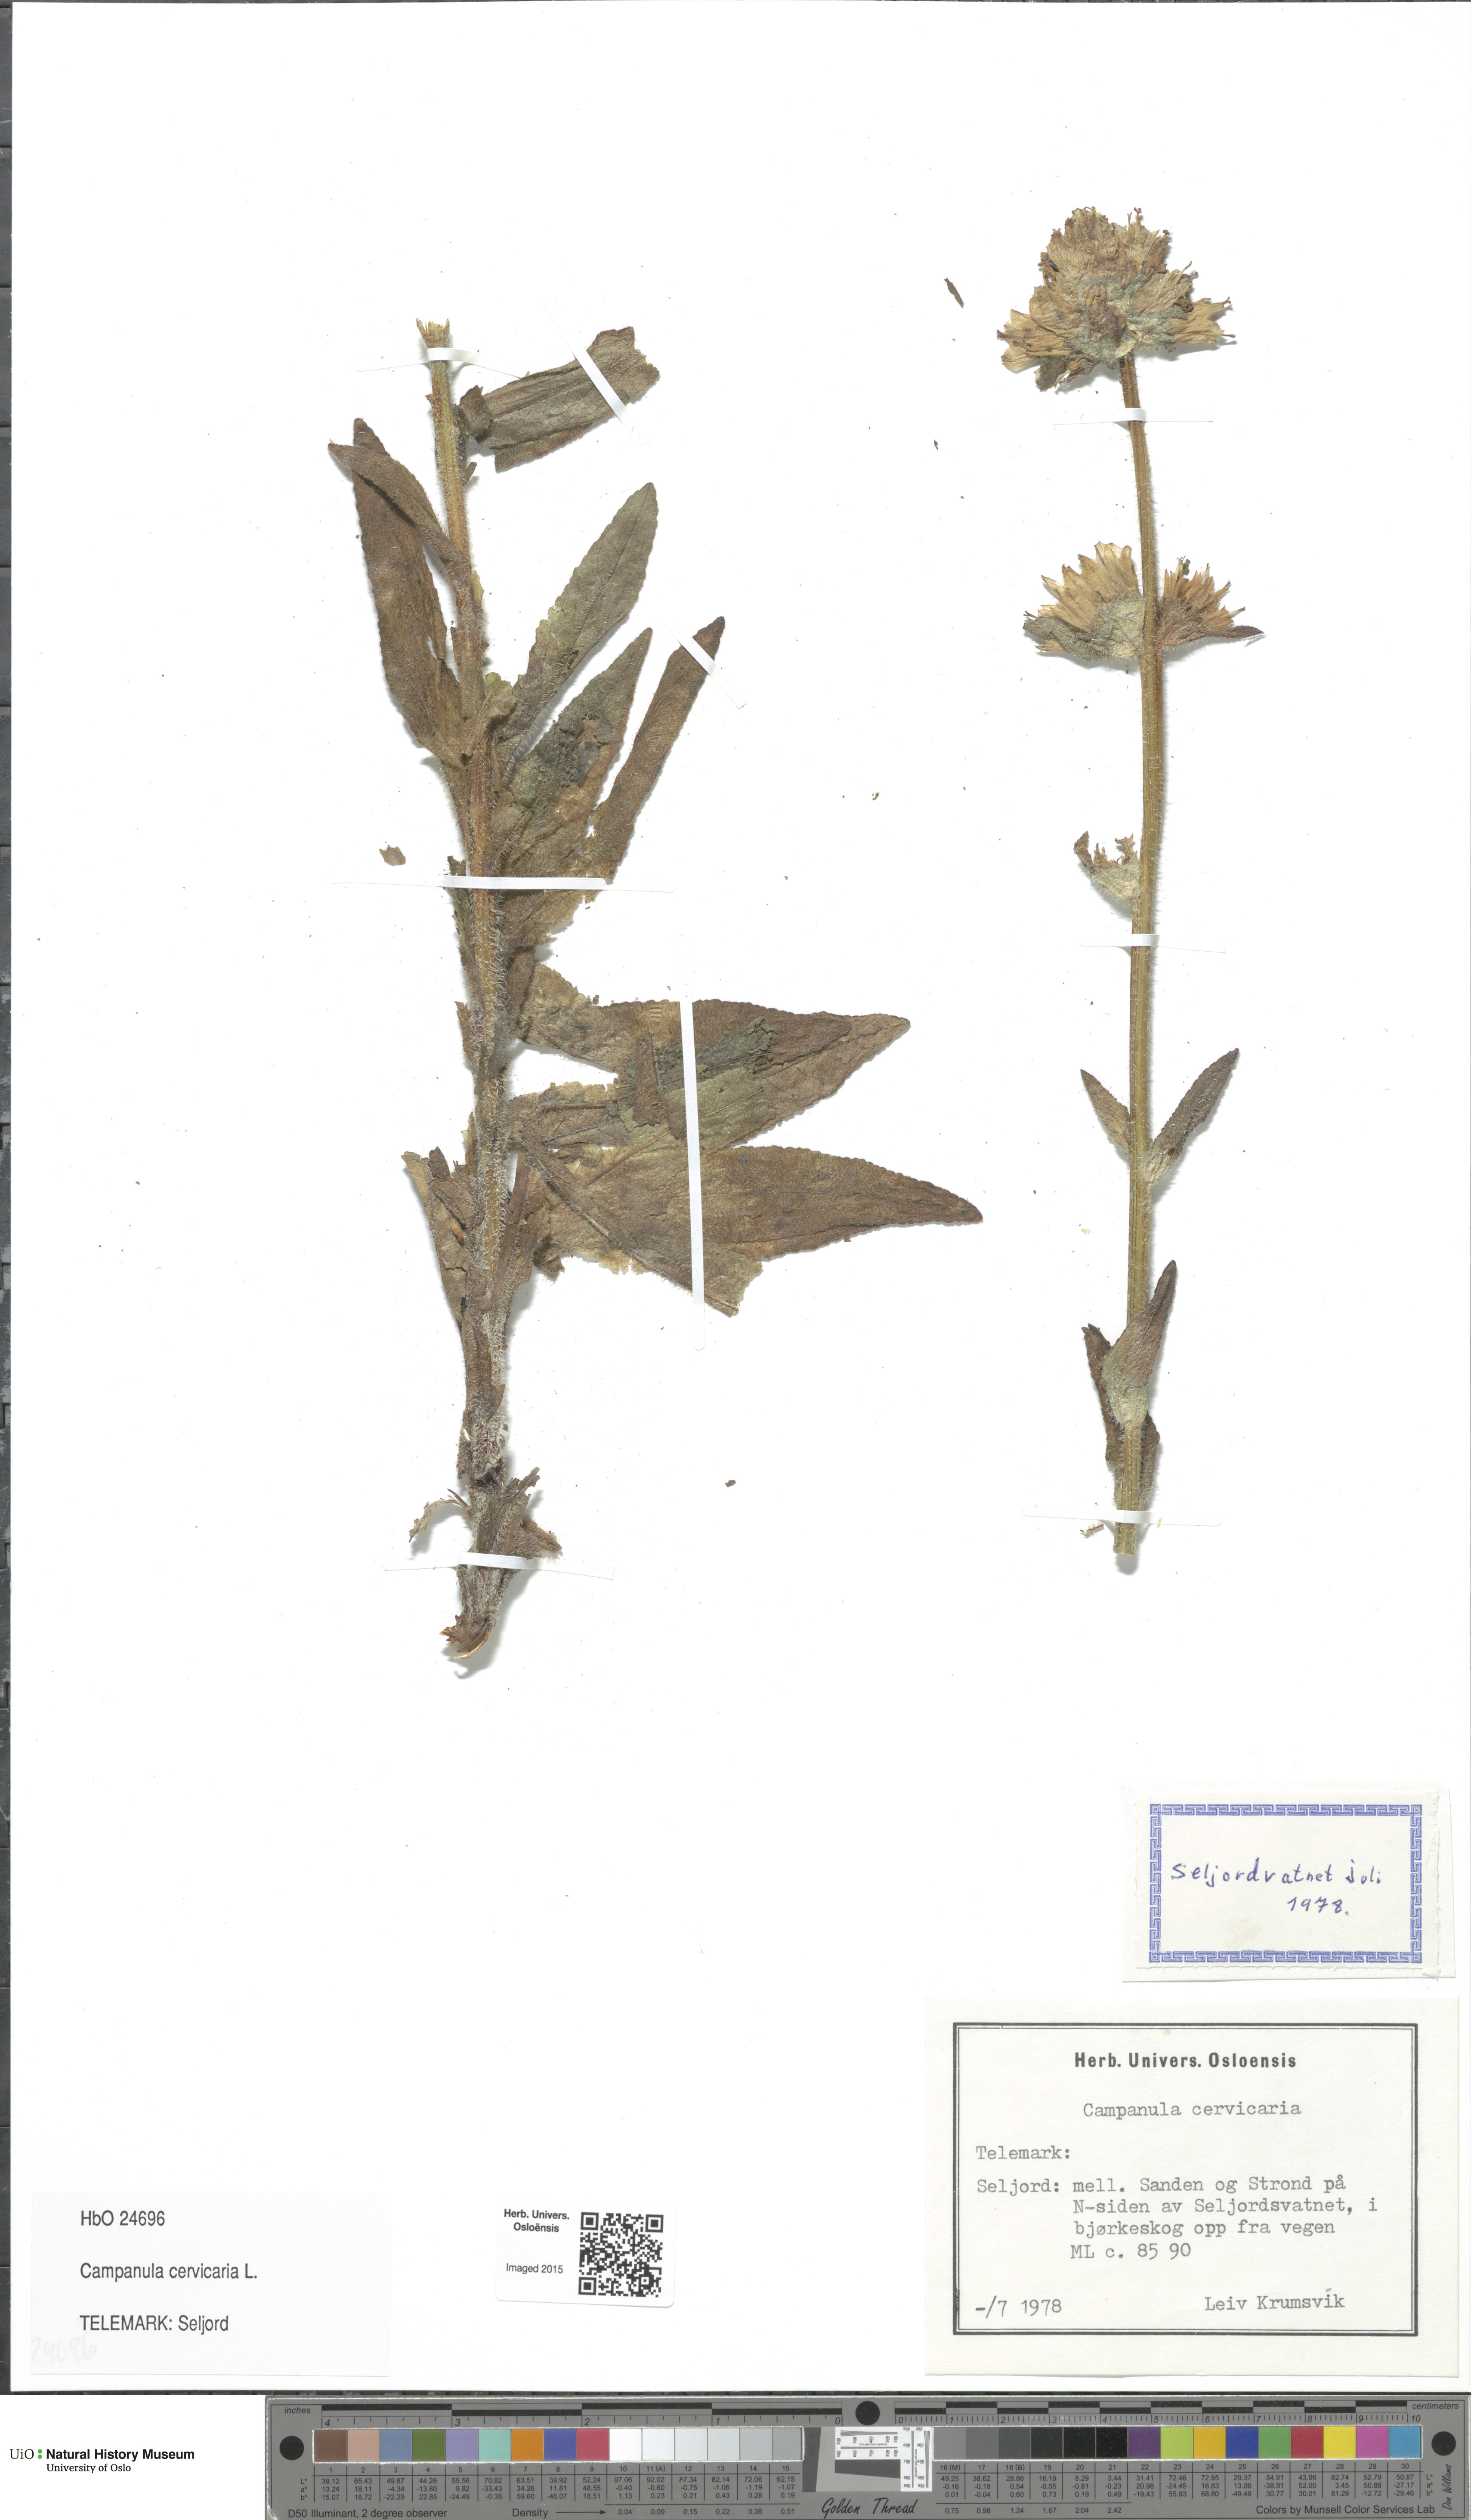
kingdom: Plantae
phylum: Tracheophyta
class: Magnoliopsida
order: Asterales
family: Campanulaceae
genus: Campanula
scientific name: Campanula cervicaria
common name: Bristly bellflower
